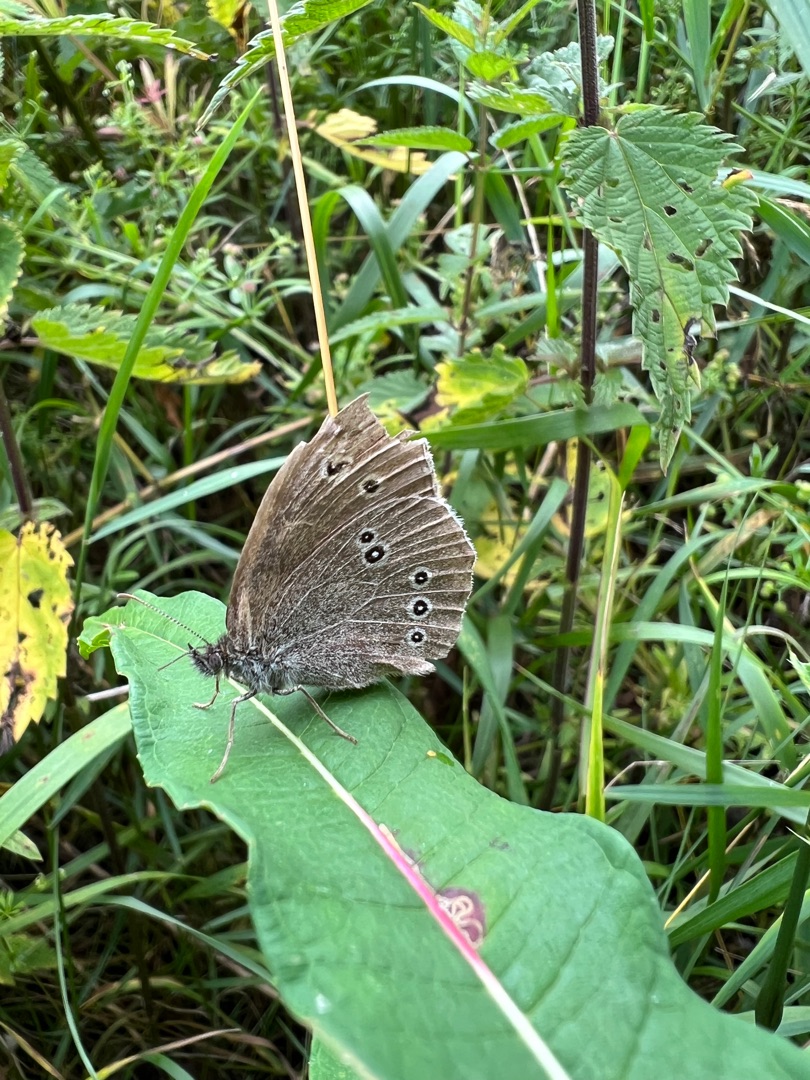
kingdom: Animalia
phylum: Arthropoda
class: Insecta
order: Lepidoptera
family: Nymphalidae
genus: Aphantopus
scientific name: Aphantopus hyperantus
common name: Engrandøje
